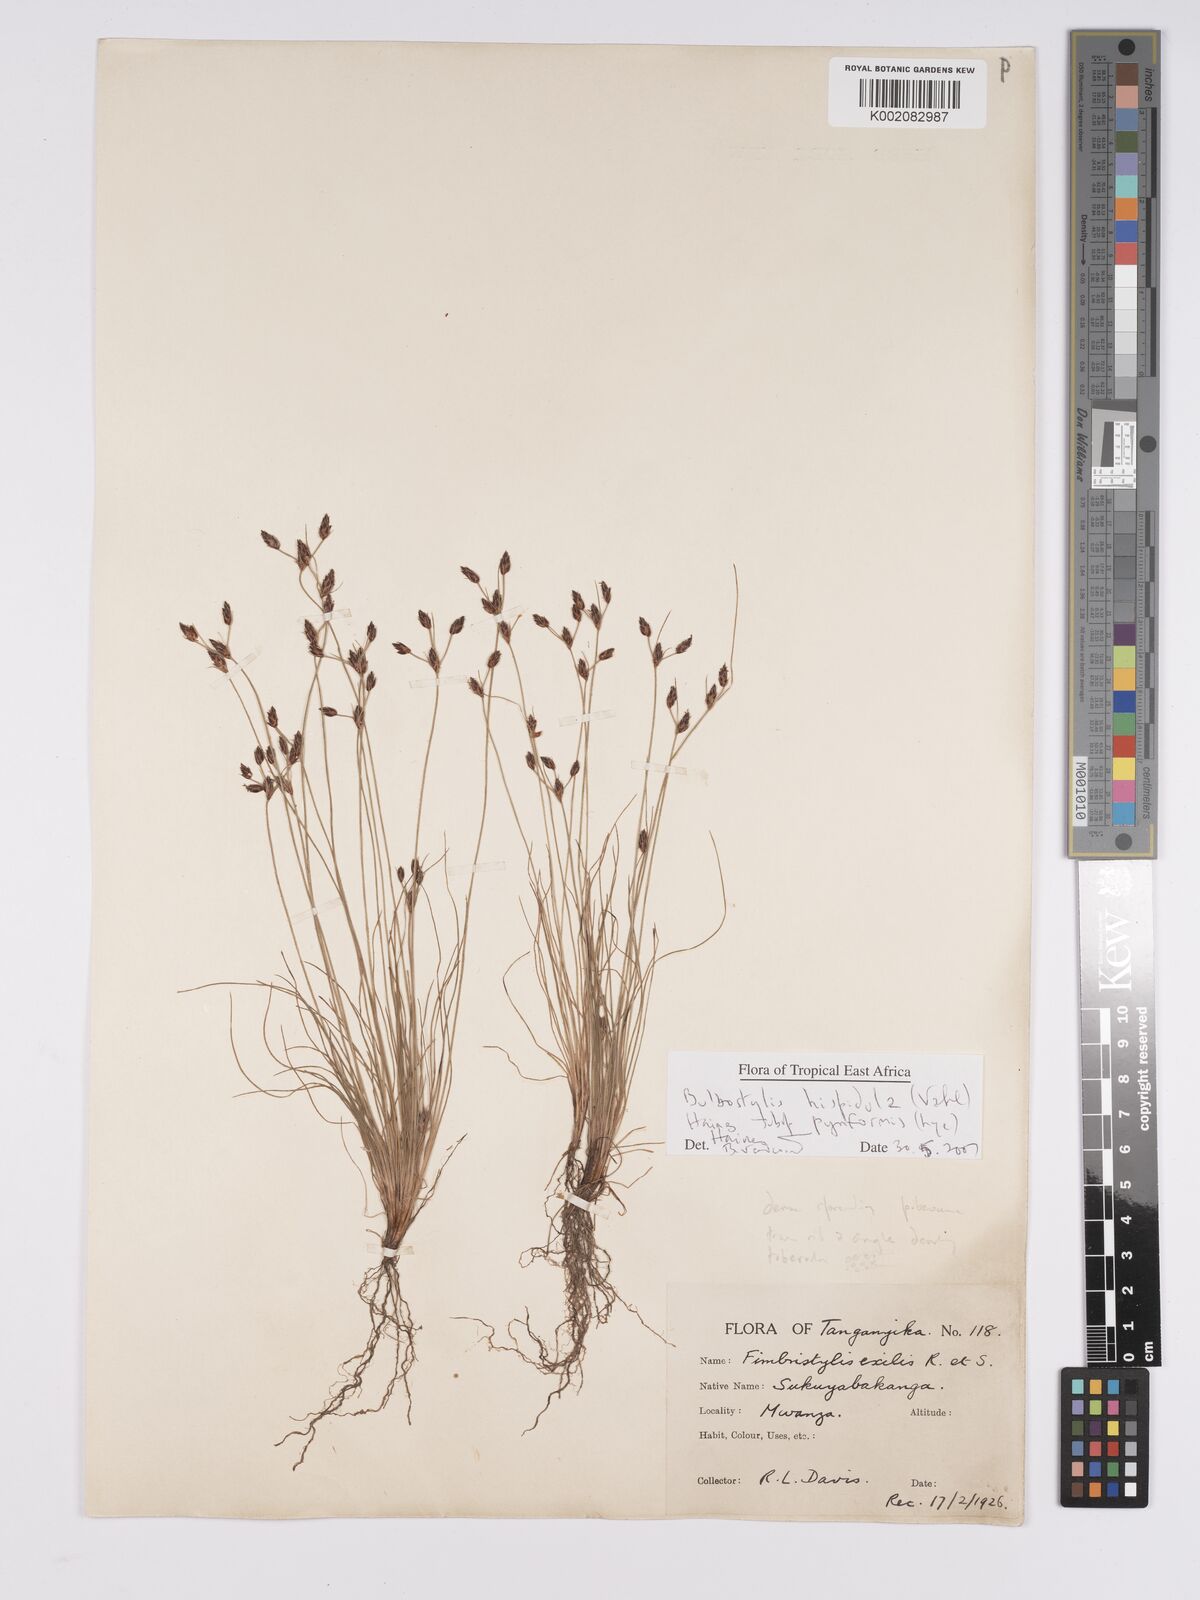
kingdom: Plantae
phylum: Tracheophyta
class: Liliopsida
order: Poales
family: Cyperaceae
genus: Bulbostylis
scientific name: Bulbostylis hispidula
